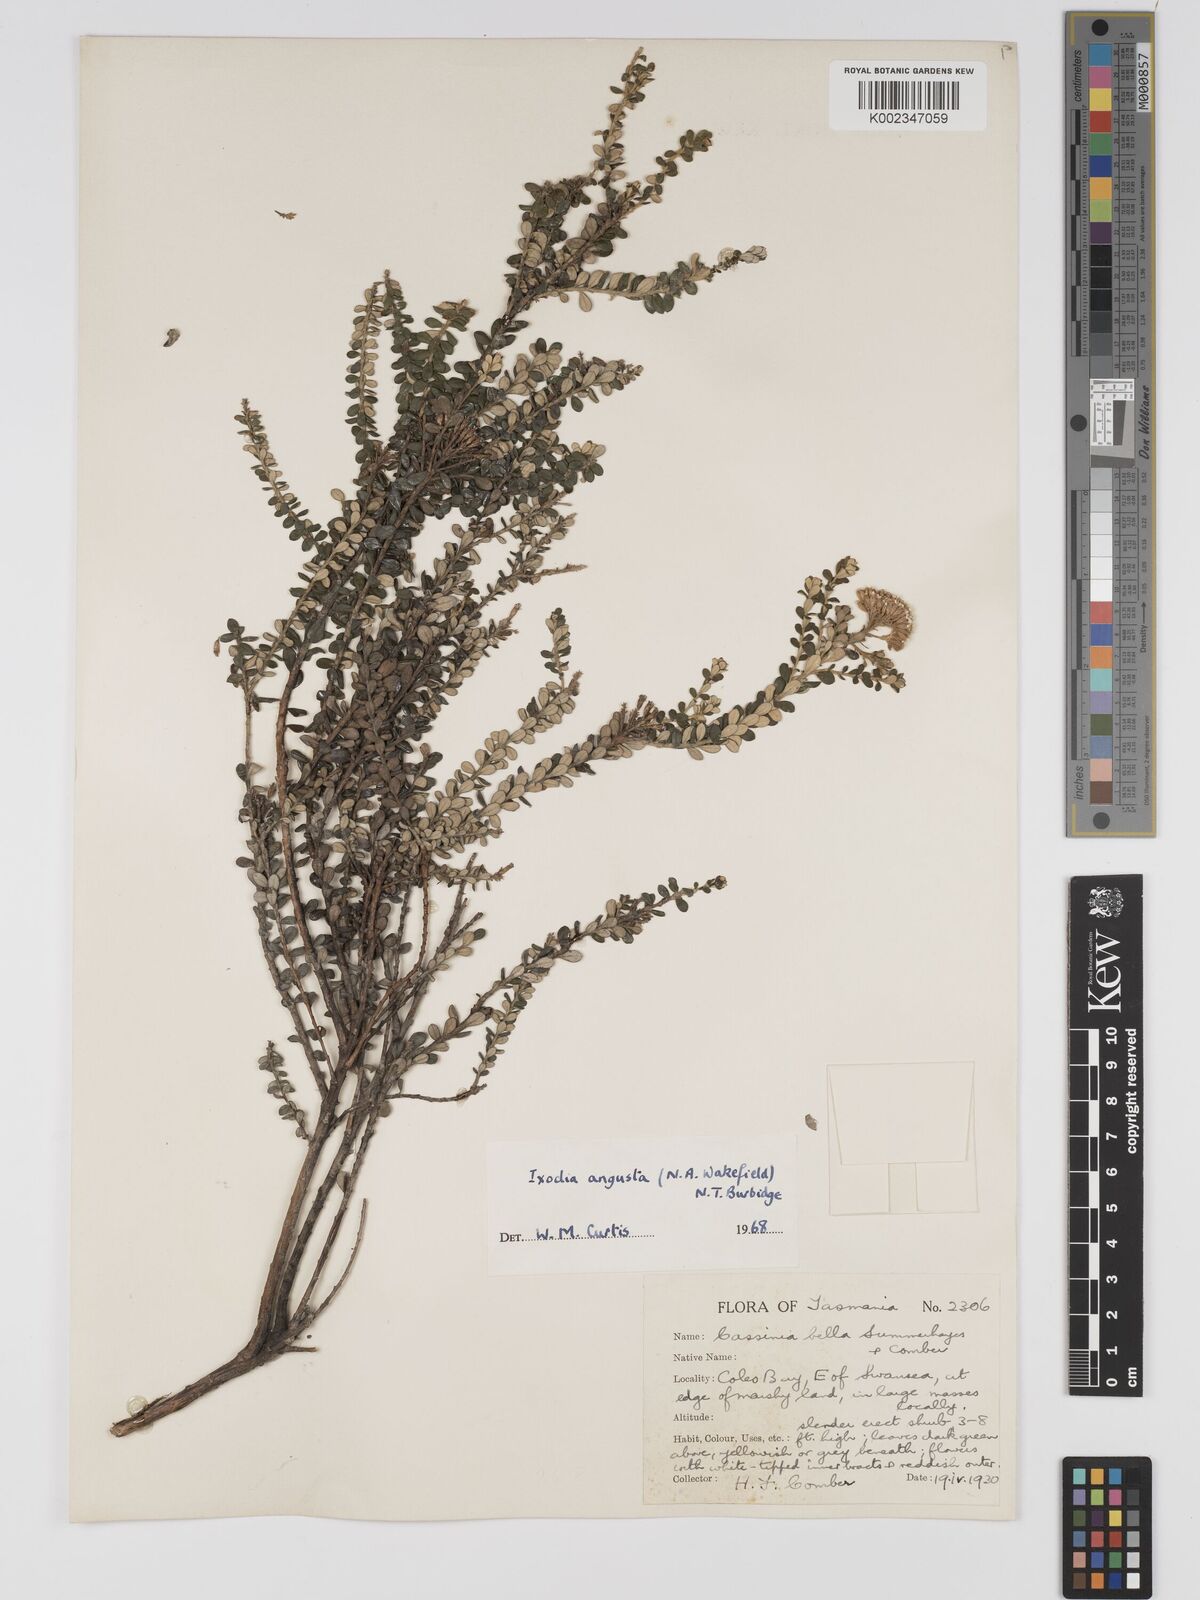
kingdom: Plantae
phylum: Tracheophyta
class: Magnoliopsida
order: Asterales
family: Asteraceae
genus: Odixia
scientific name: Odixia angusta
